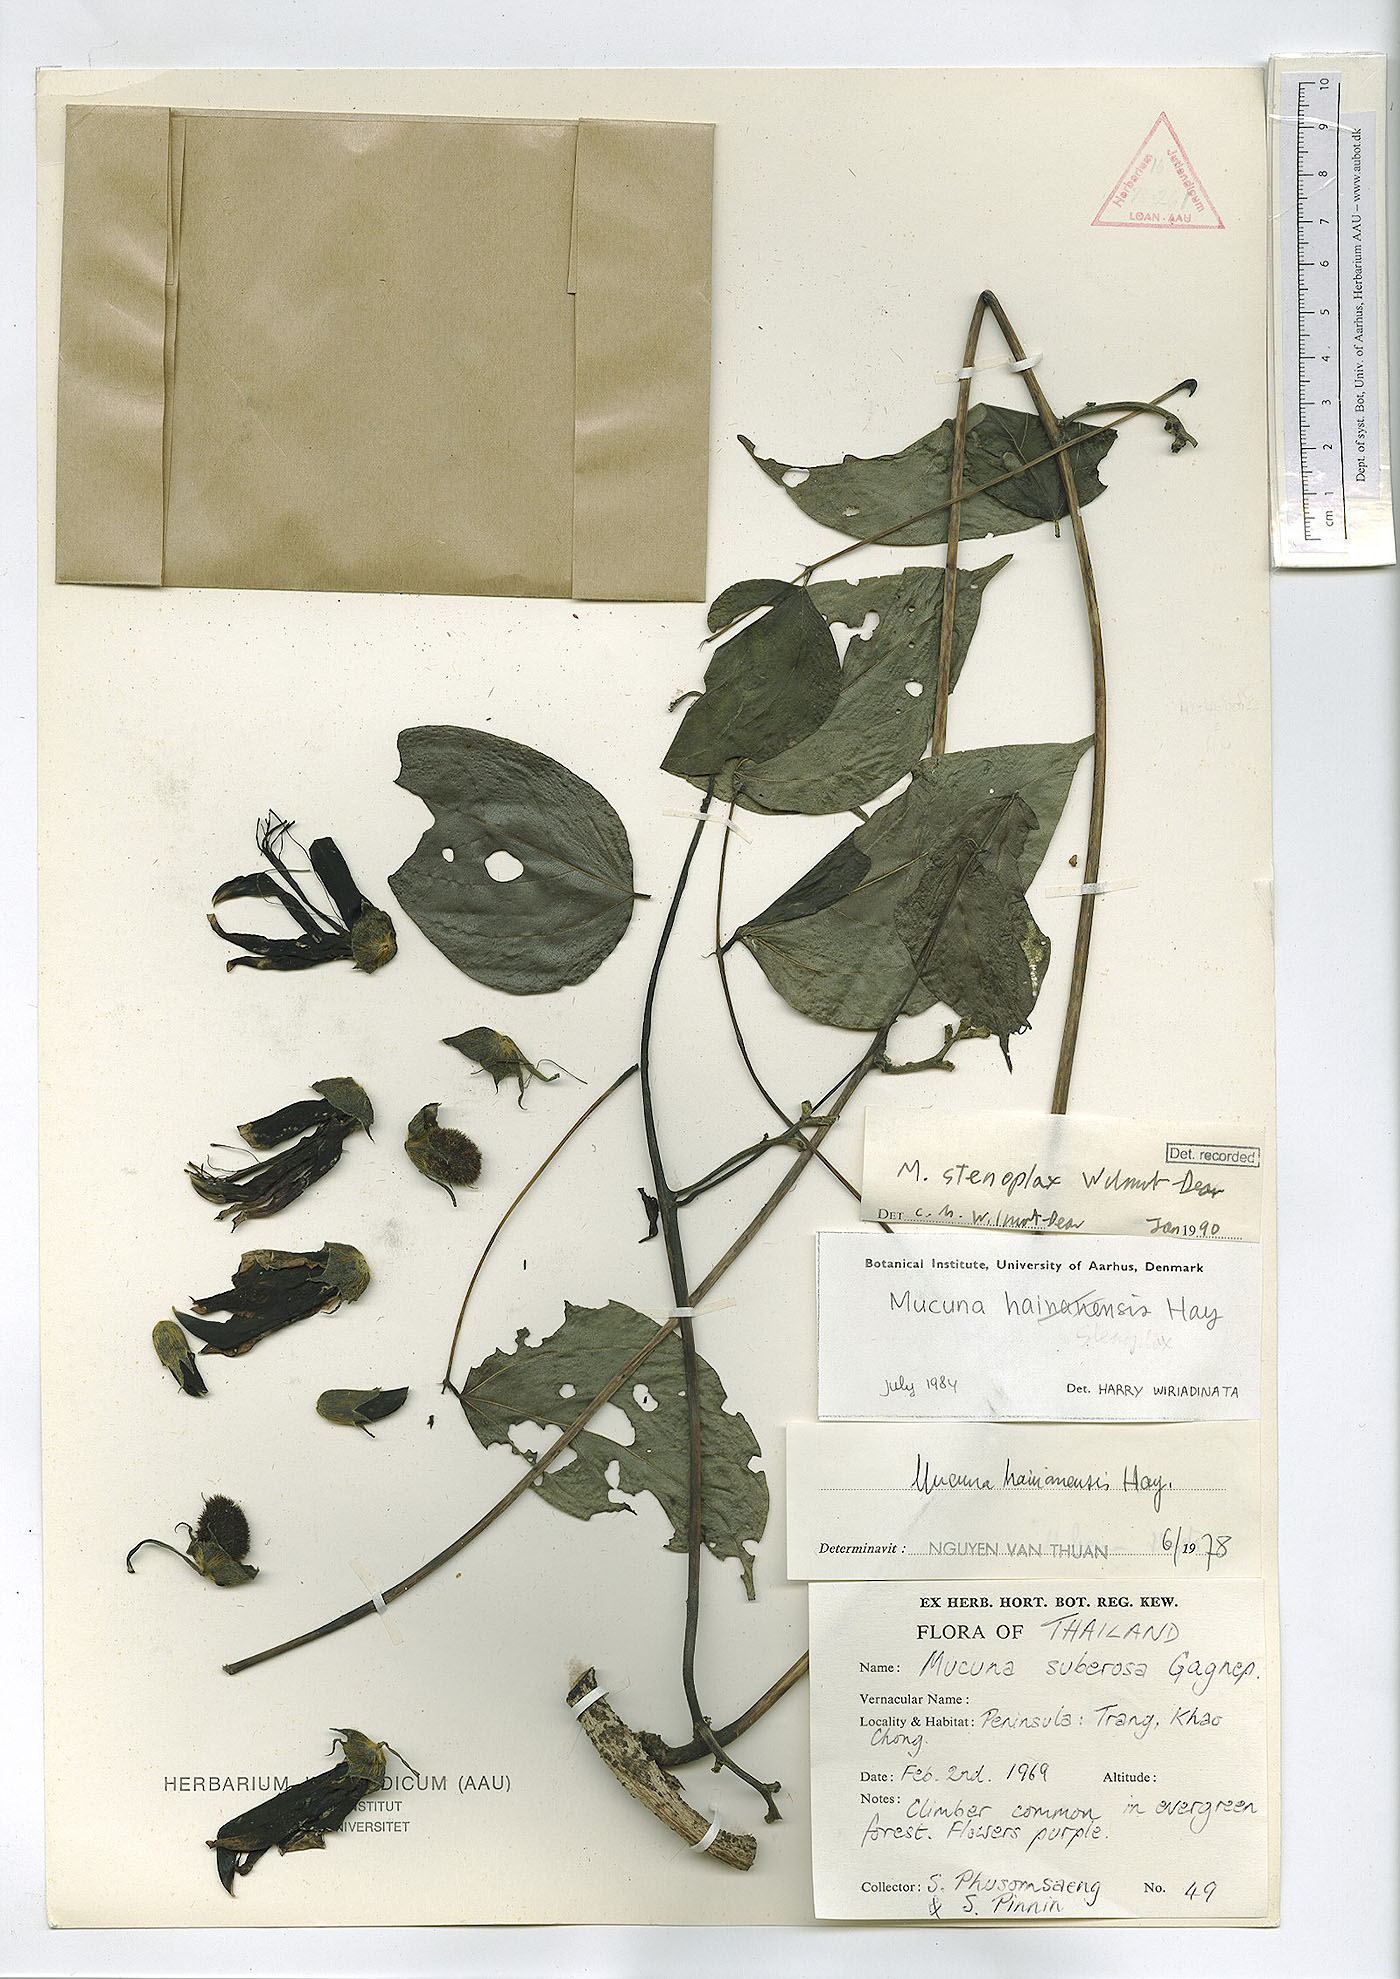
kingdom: Plantae
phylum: Tracheophyta
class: Magnoliopsida
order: Fabales
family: Fabaceae
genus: Mucuna
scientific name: Mucuna stenoplax
